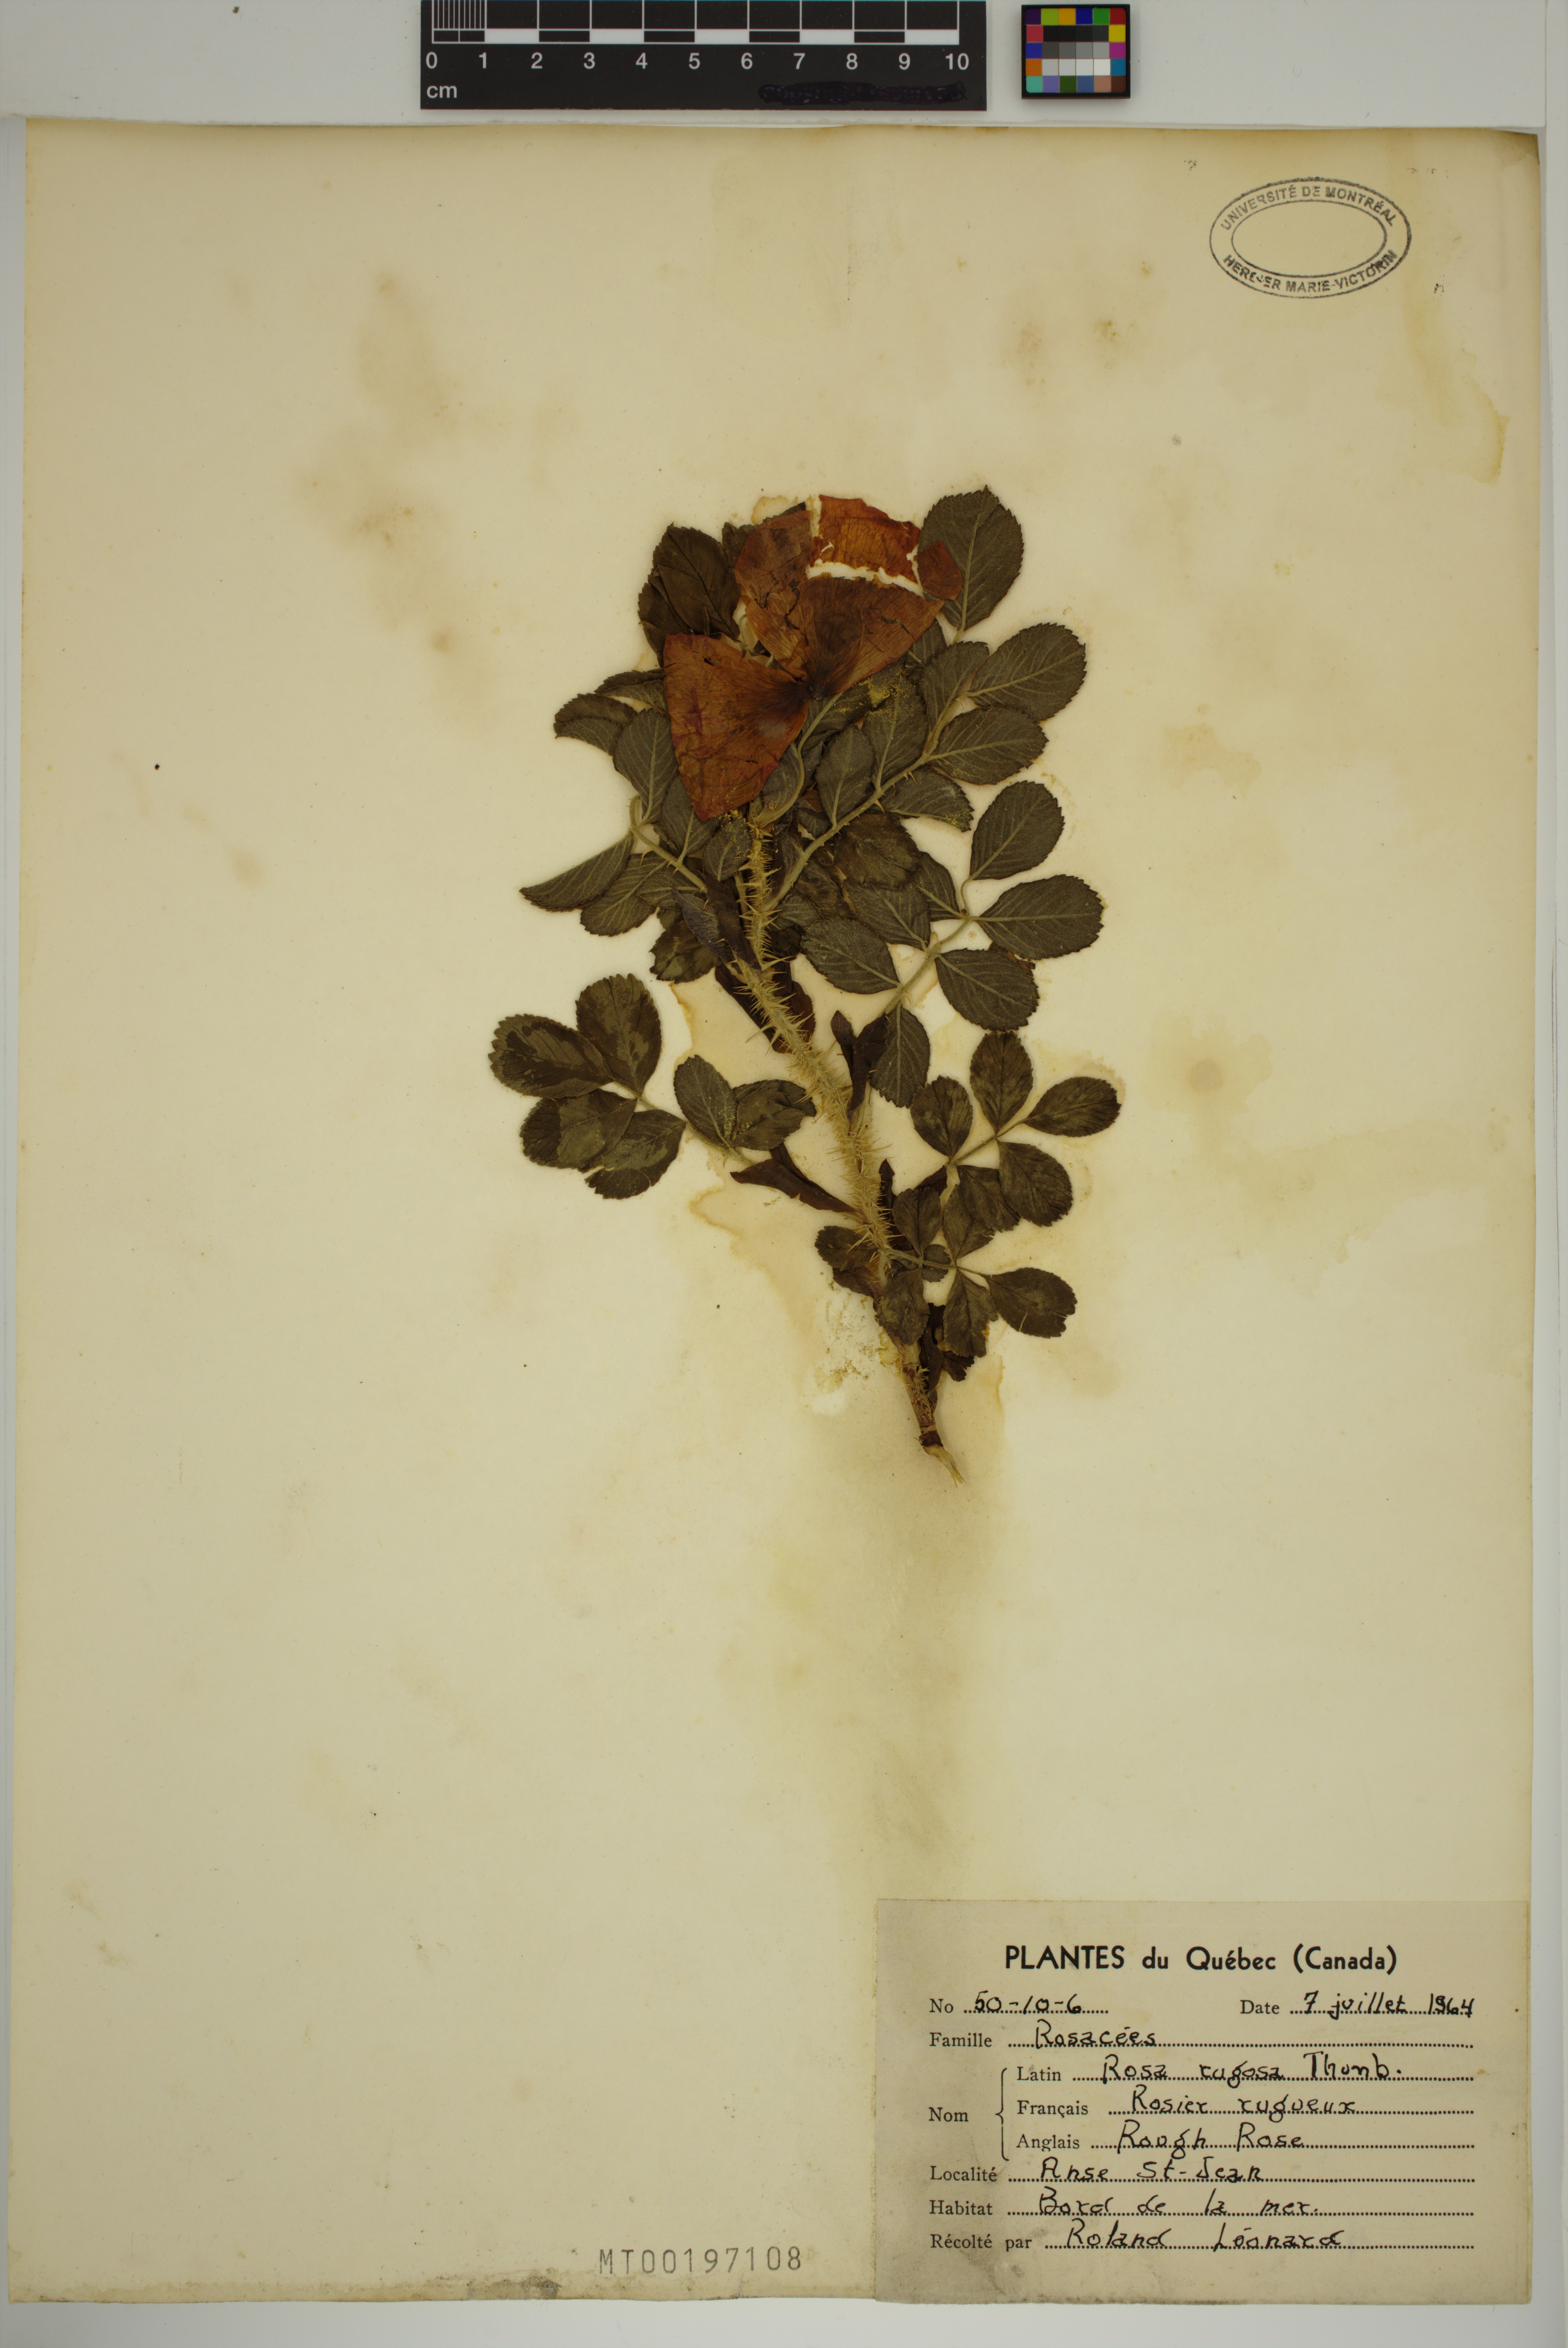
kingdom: Plantae
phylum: Tracheophyta
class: Magnoliopsida
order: Rosales
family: Rosaceae
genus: Rosa
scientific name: Rosa rugosa
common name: Japanese rose
